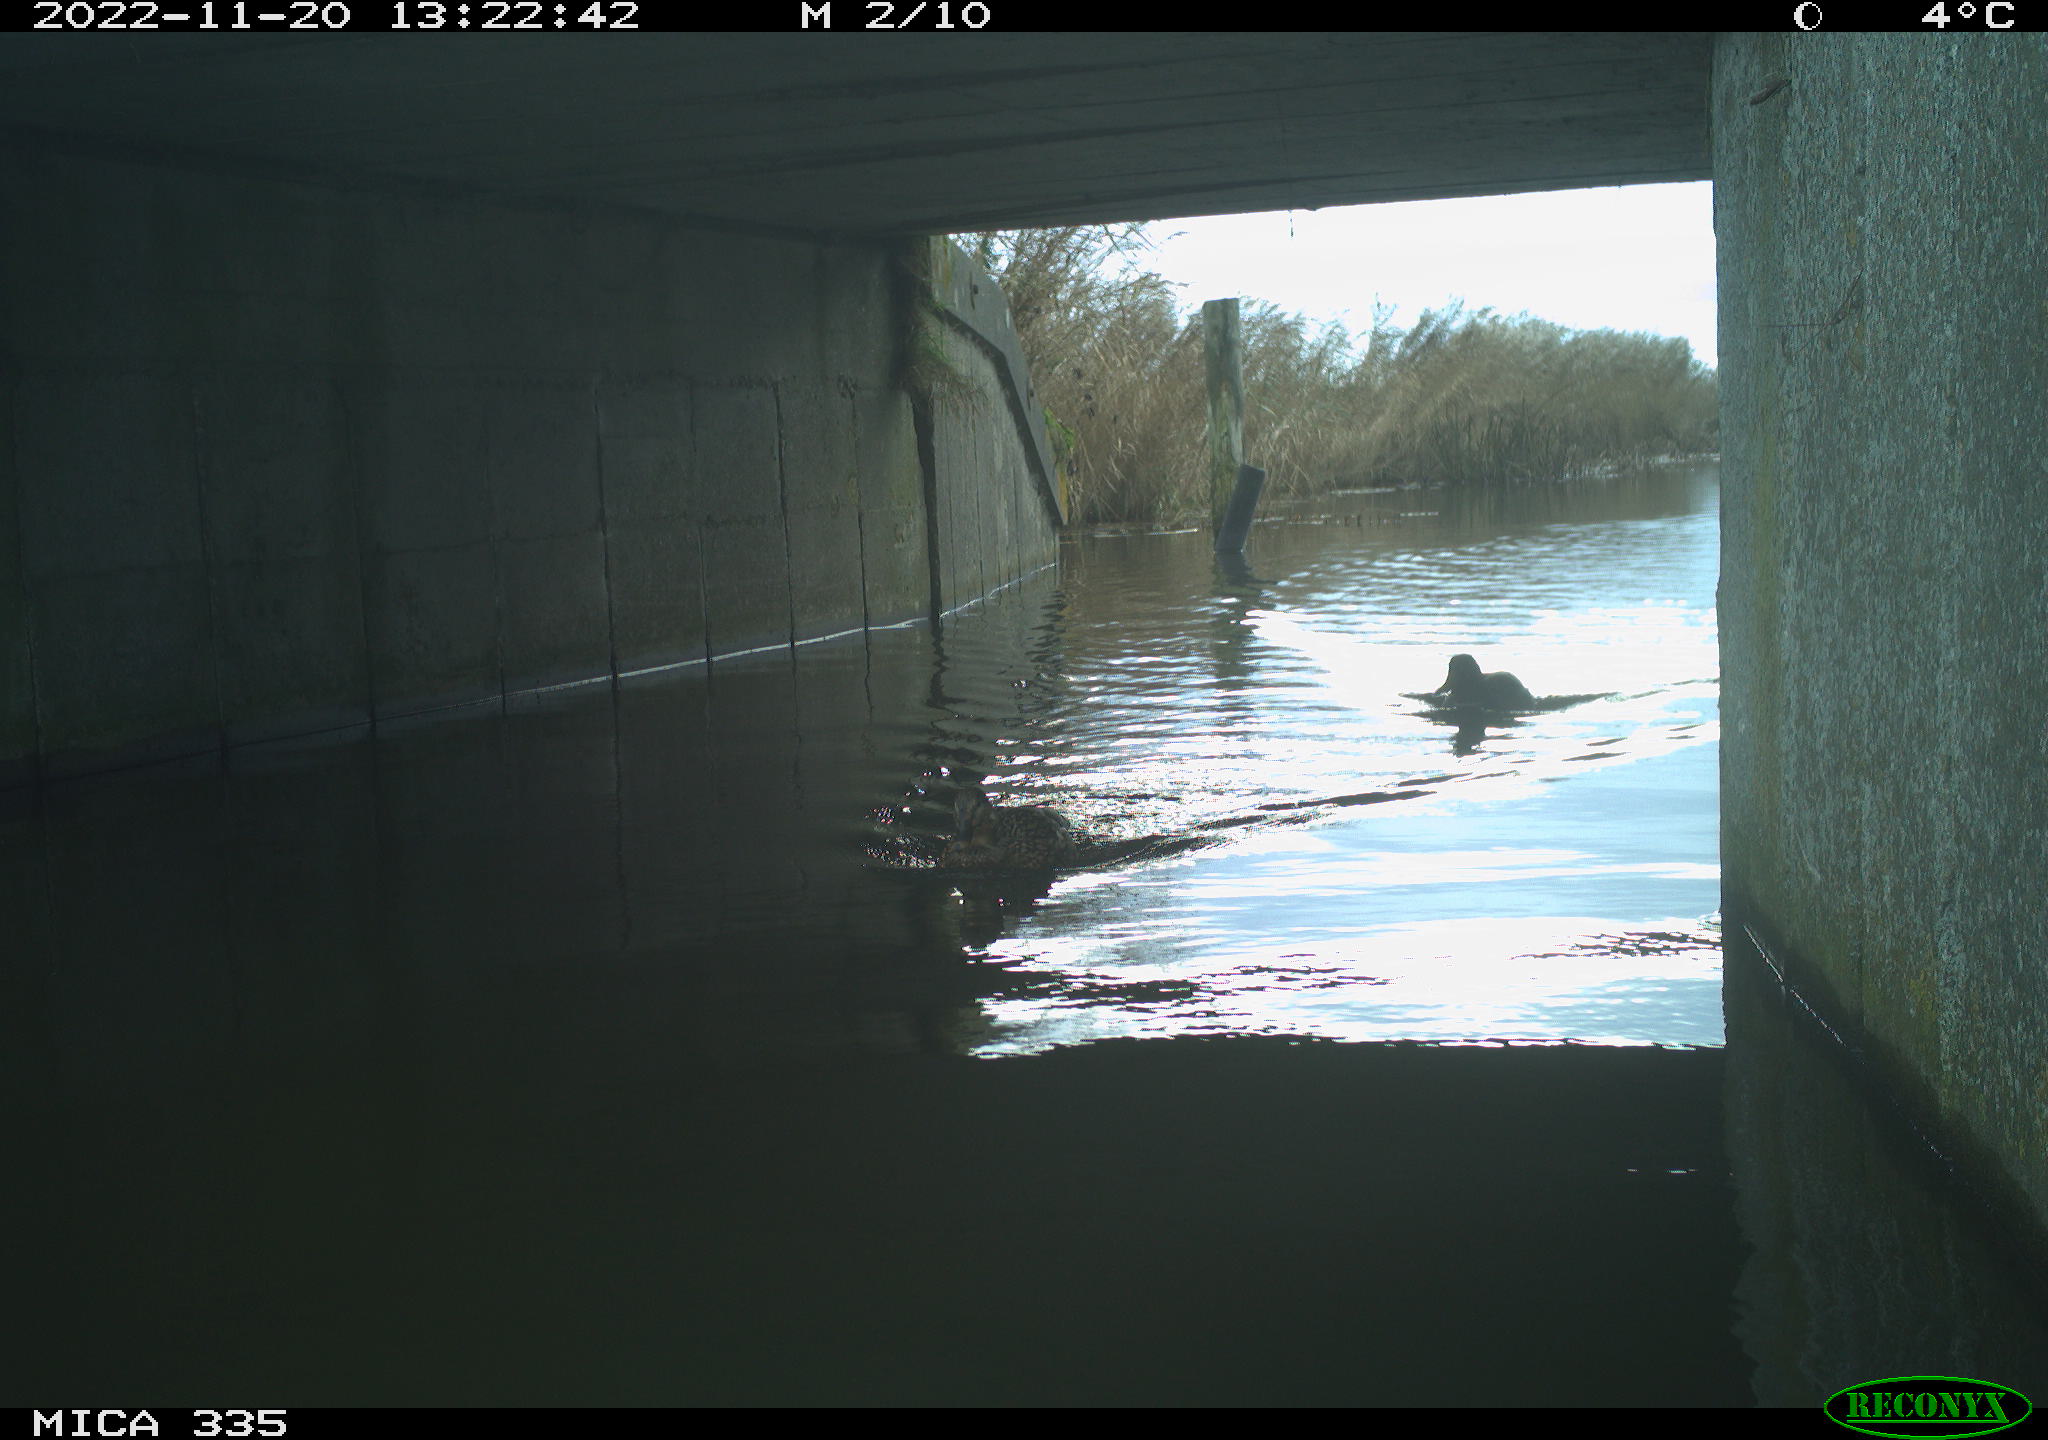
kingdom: Animalia
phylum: Chordata
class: Aves
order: Anseriformes
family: Anatidae
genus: Anas
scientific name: Anas platyrhynchos
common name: Mallard
